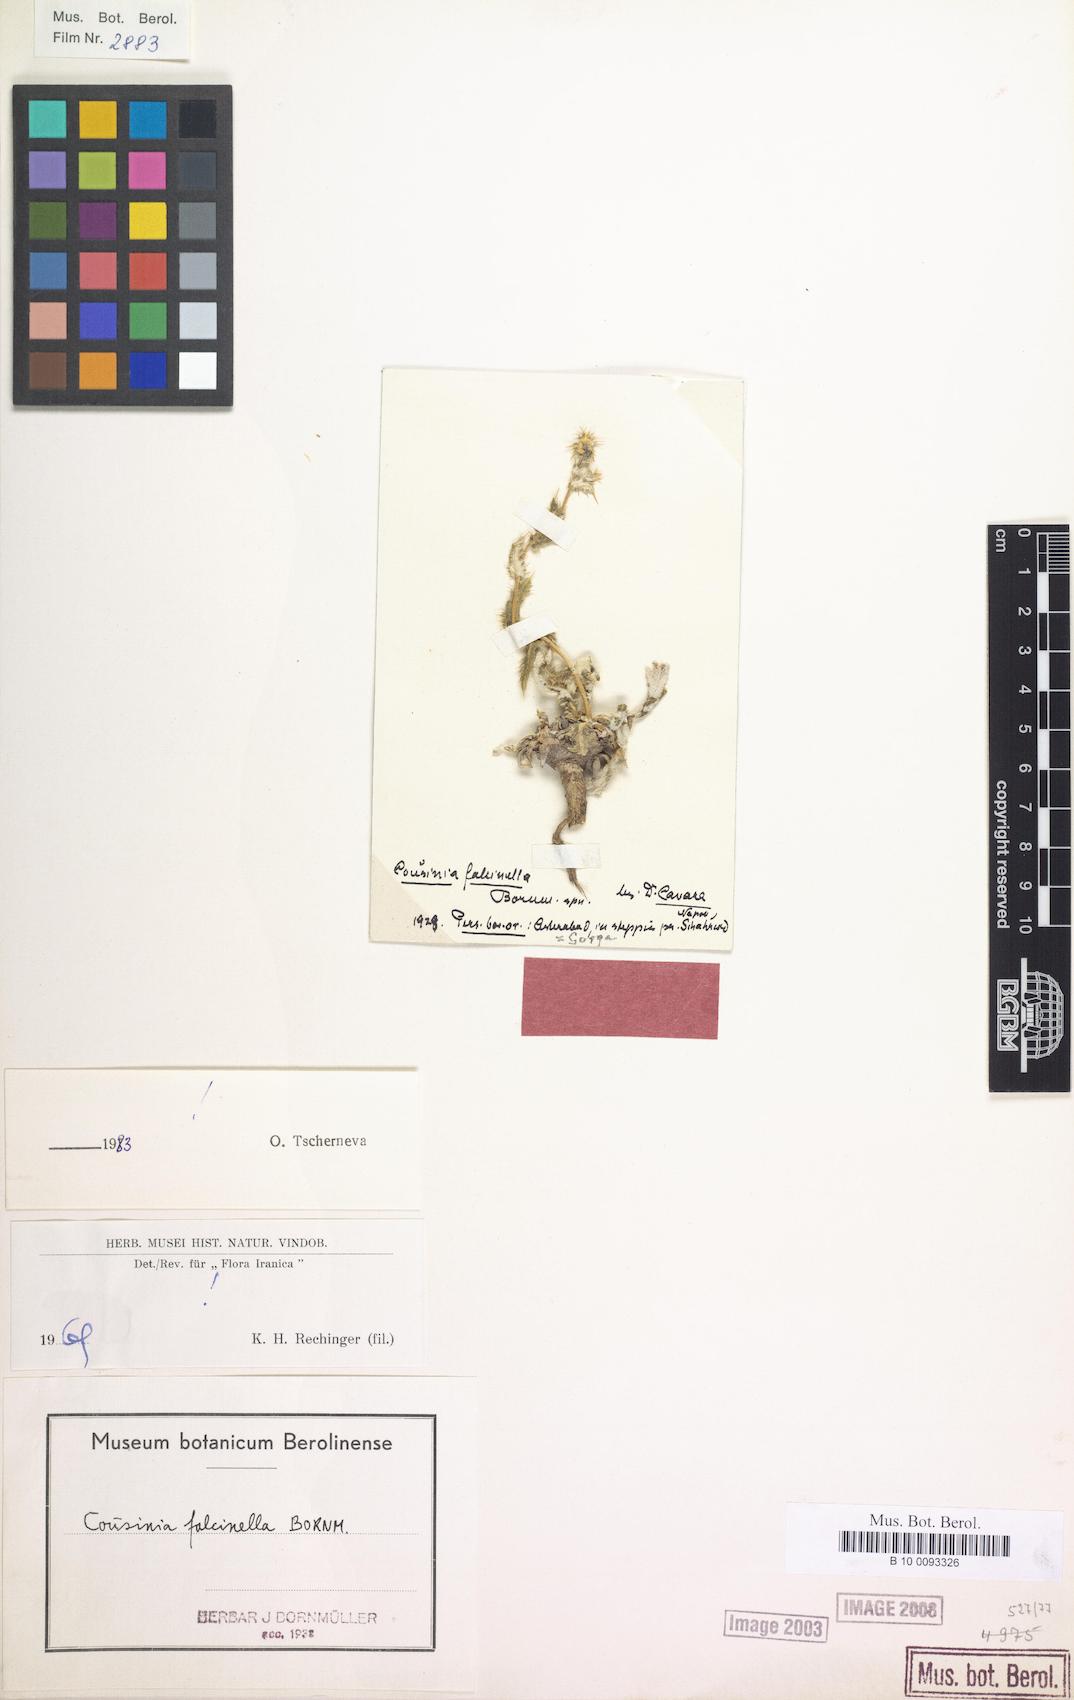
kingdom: Plantae
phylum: Tracheophyta
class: Magnoliopsida
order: Asterales
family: Asteraceae
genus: Cousinia
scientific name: Cousinia falcinella
